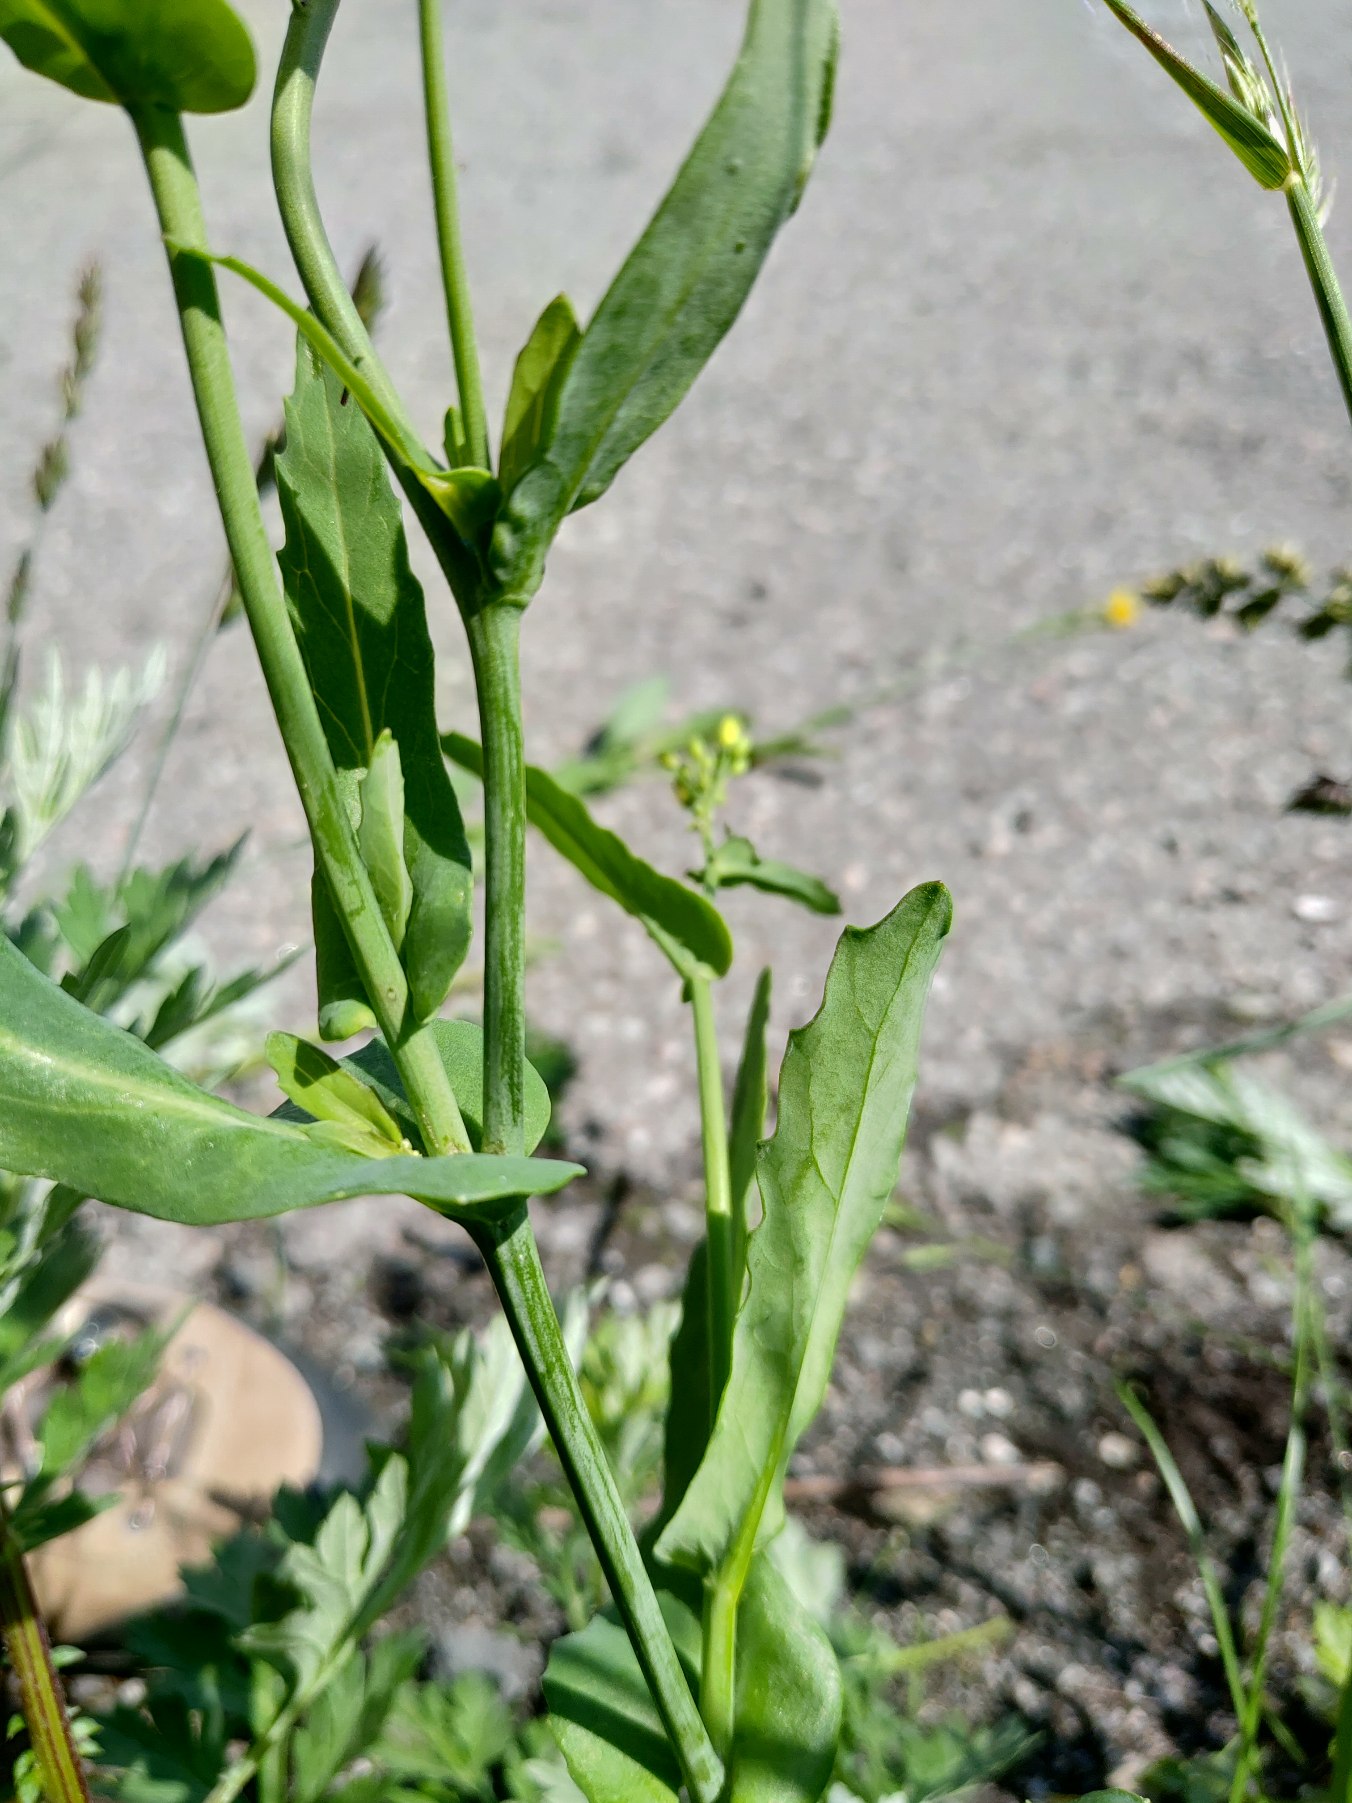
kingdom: Plantae
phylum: Tracheophyta
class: Magnoliopsida
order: Brassicales
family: Brassicaceae
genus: Brassica
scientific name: Brassica rapa
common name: Ager-kål
